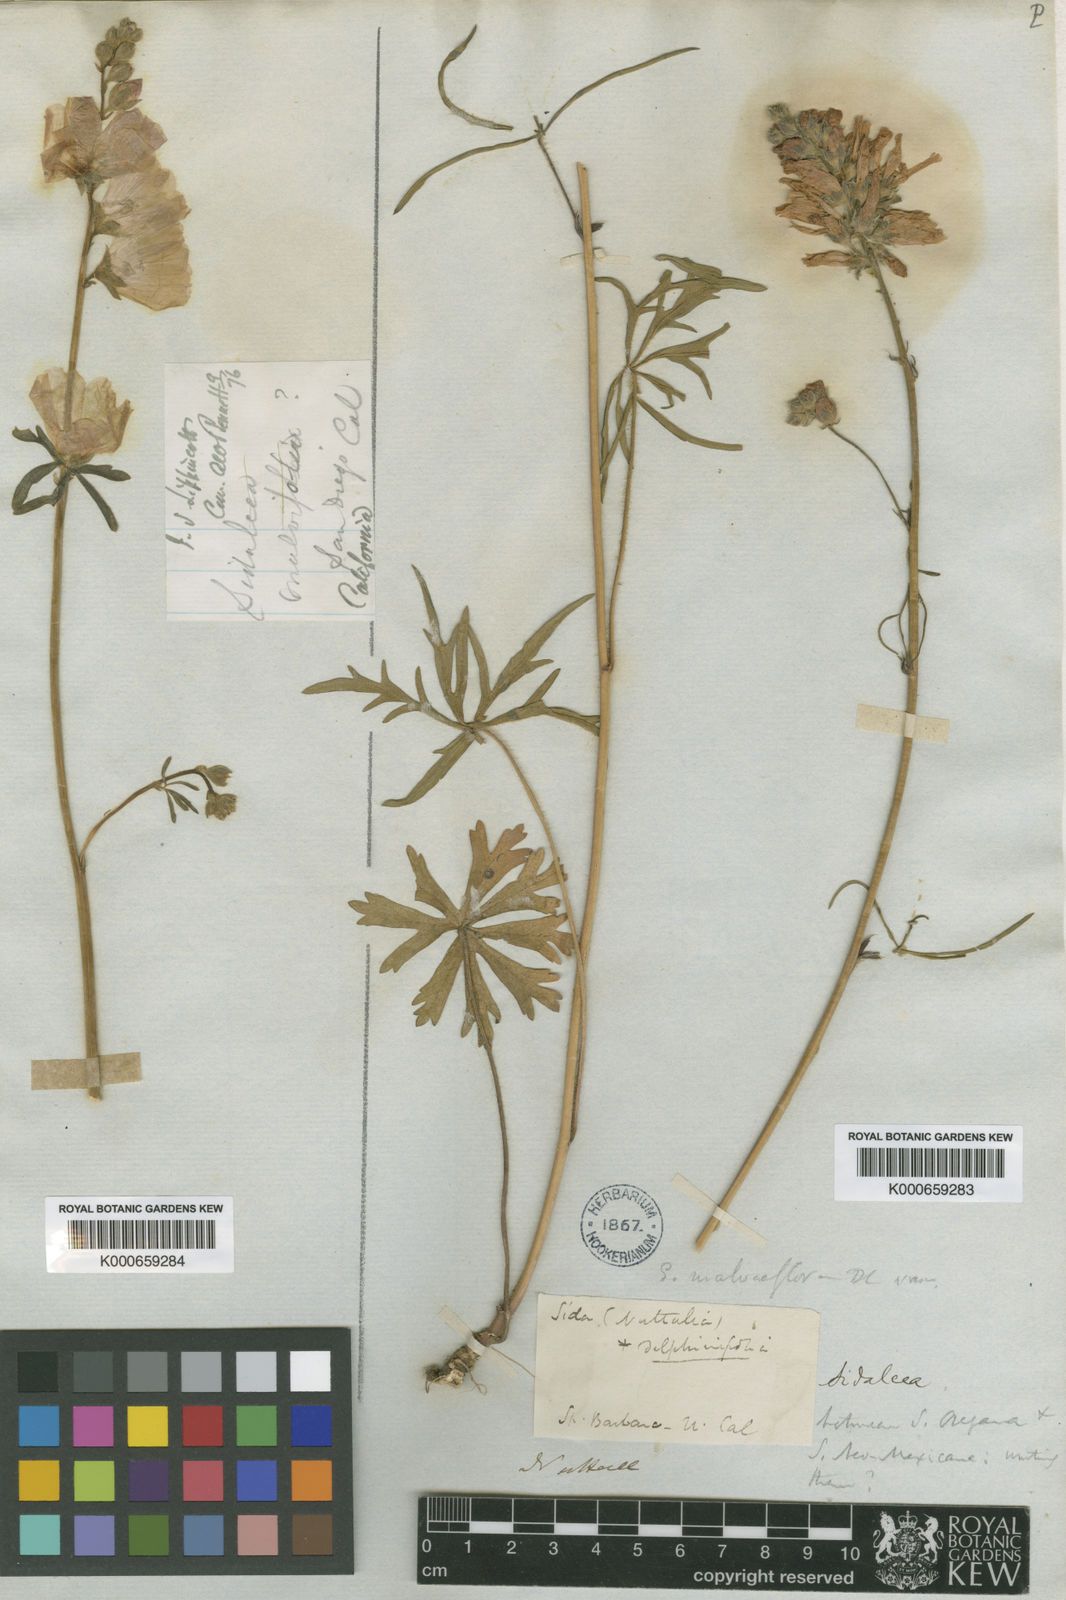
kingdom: Plantae
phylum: Tracheophyta
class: Magnoliopsida
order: Malvales
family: Malvaceae
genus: Sidalcea
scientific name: Sidalcea
